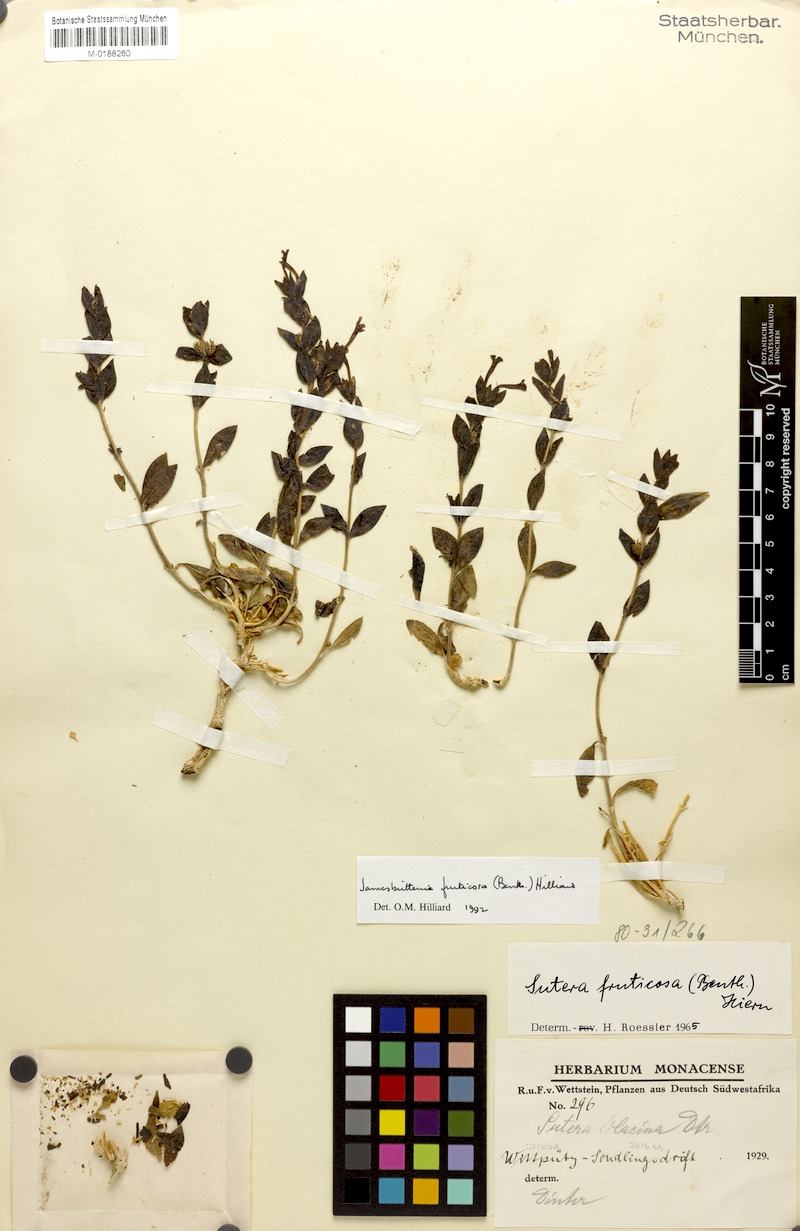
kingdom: Plantae
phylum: Tracheophyta
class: Magnoliopsida
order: Lamiales
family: Scrophulariaceae
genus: Jamesbrittenia
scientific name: Jamesbrittenia fruticosa
